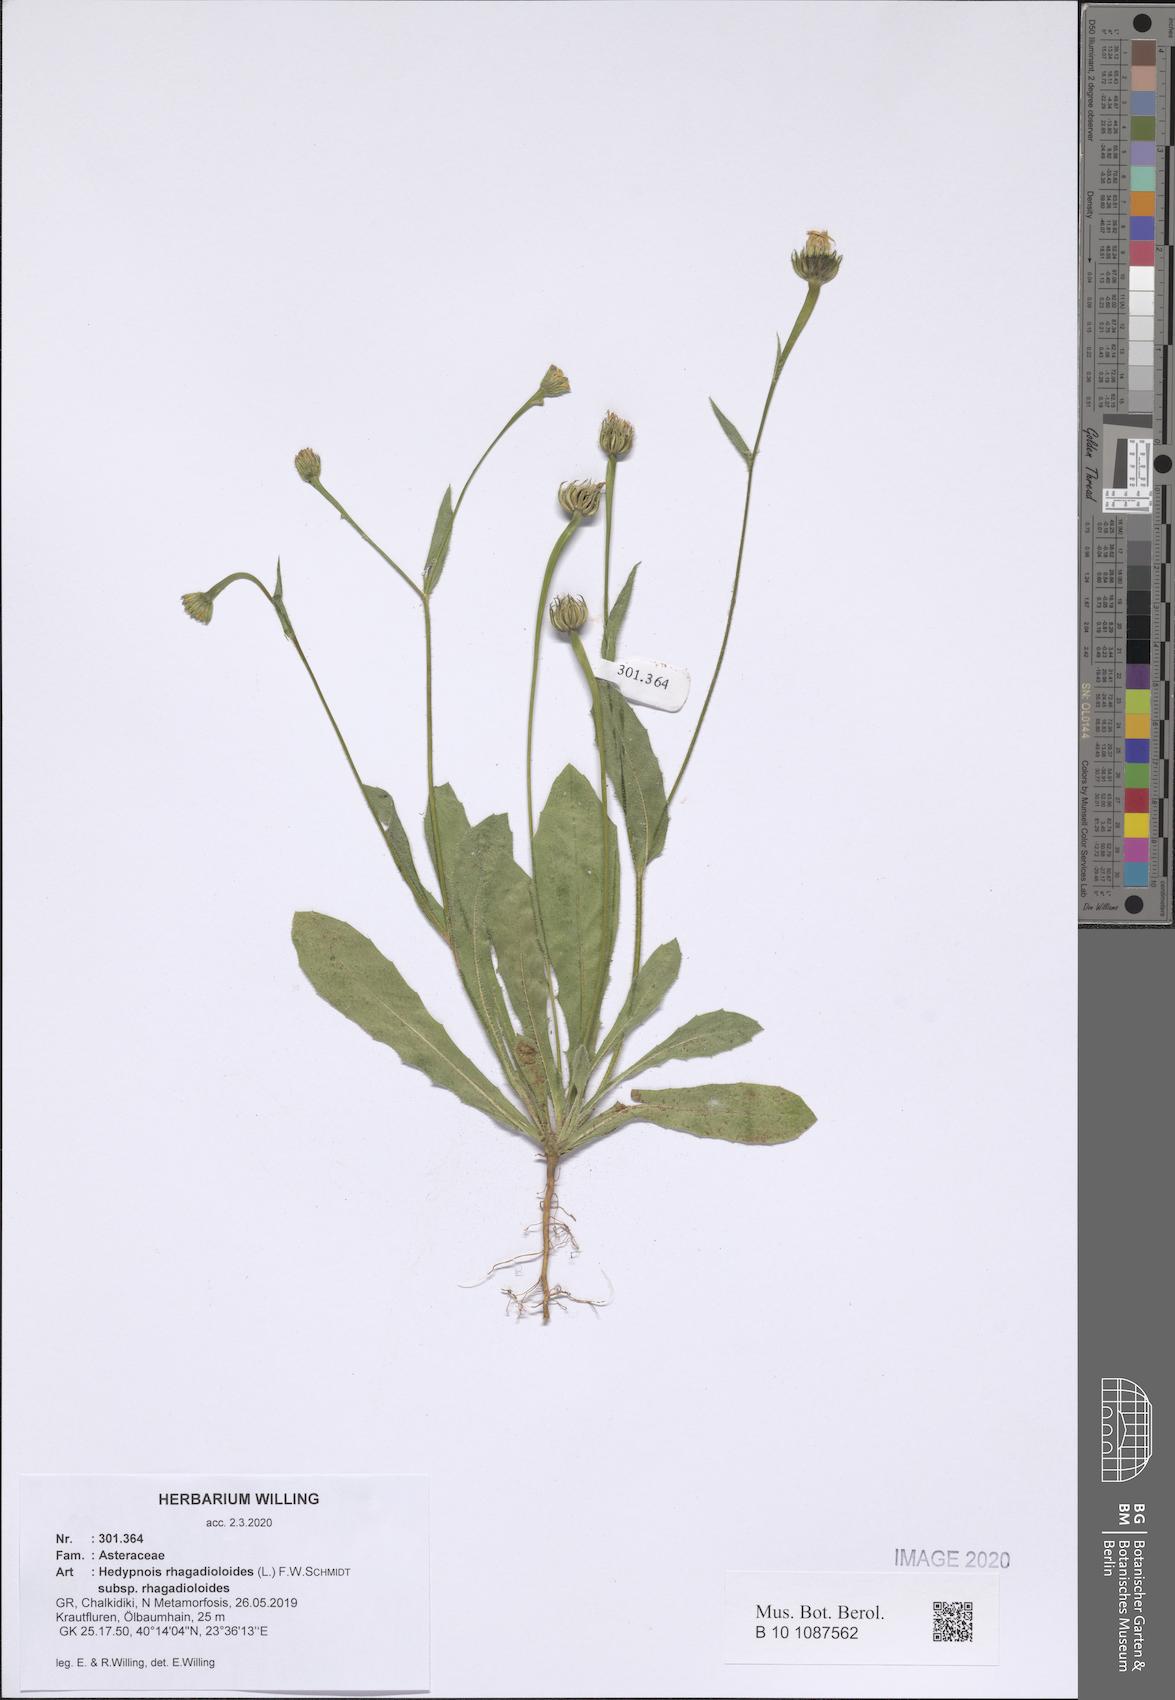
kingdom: Plantae
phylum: Tracheophyta
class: Magnoliopsida
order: Asterales
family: Asteraceae
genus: Hedypnois
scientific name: Hedypnois rhagadioloides
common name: Cretan weed
